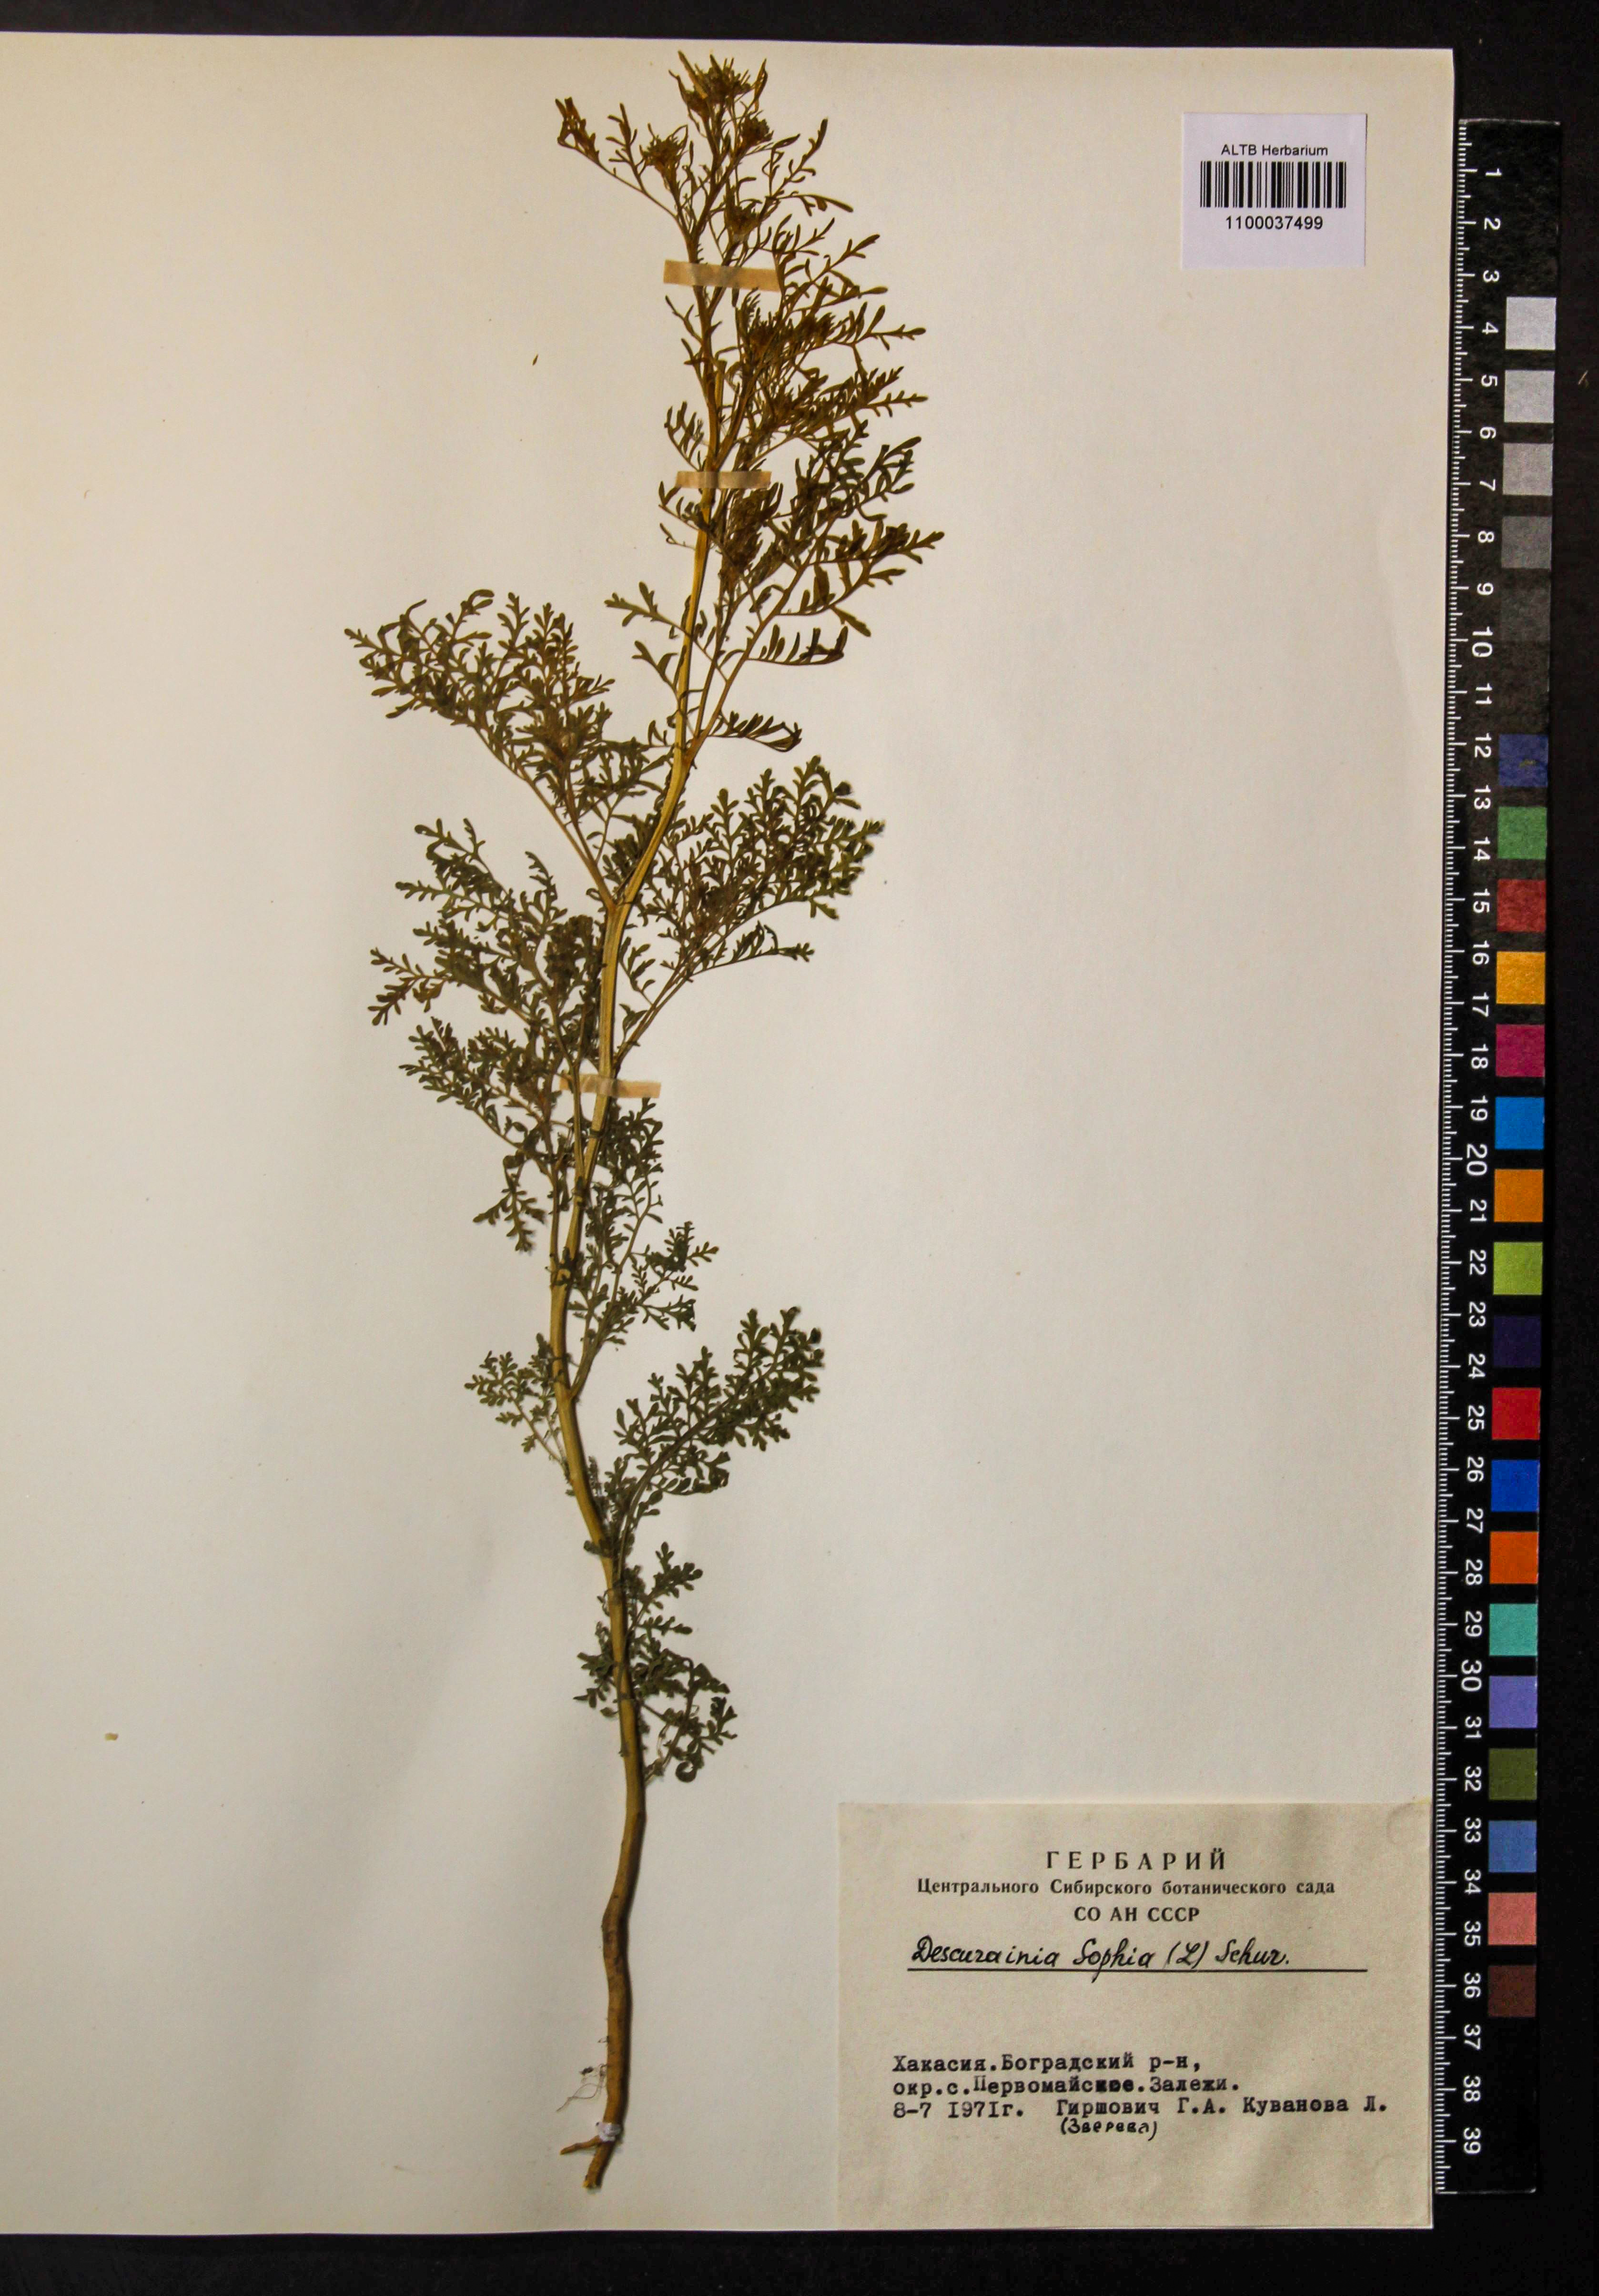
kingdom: Plantae
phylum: Tracheophyta
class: Magnoliopsida
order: Brassicales
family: Brassicaceae
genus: Descurainia
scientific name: Descurainia sophia
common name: Flixweed
